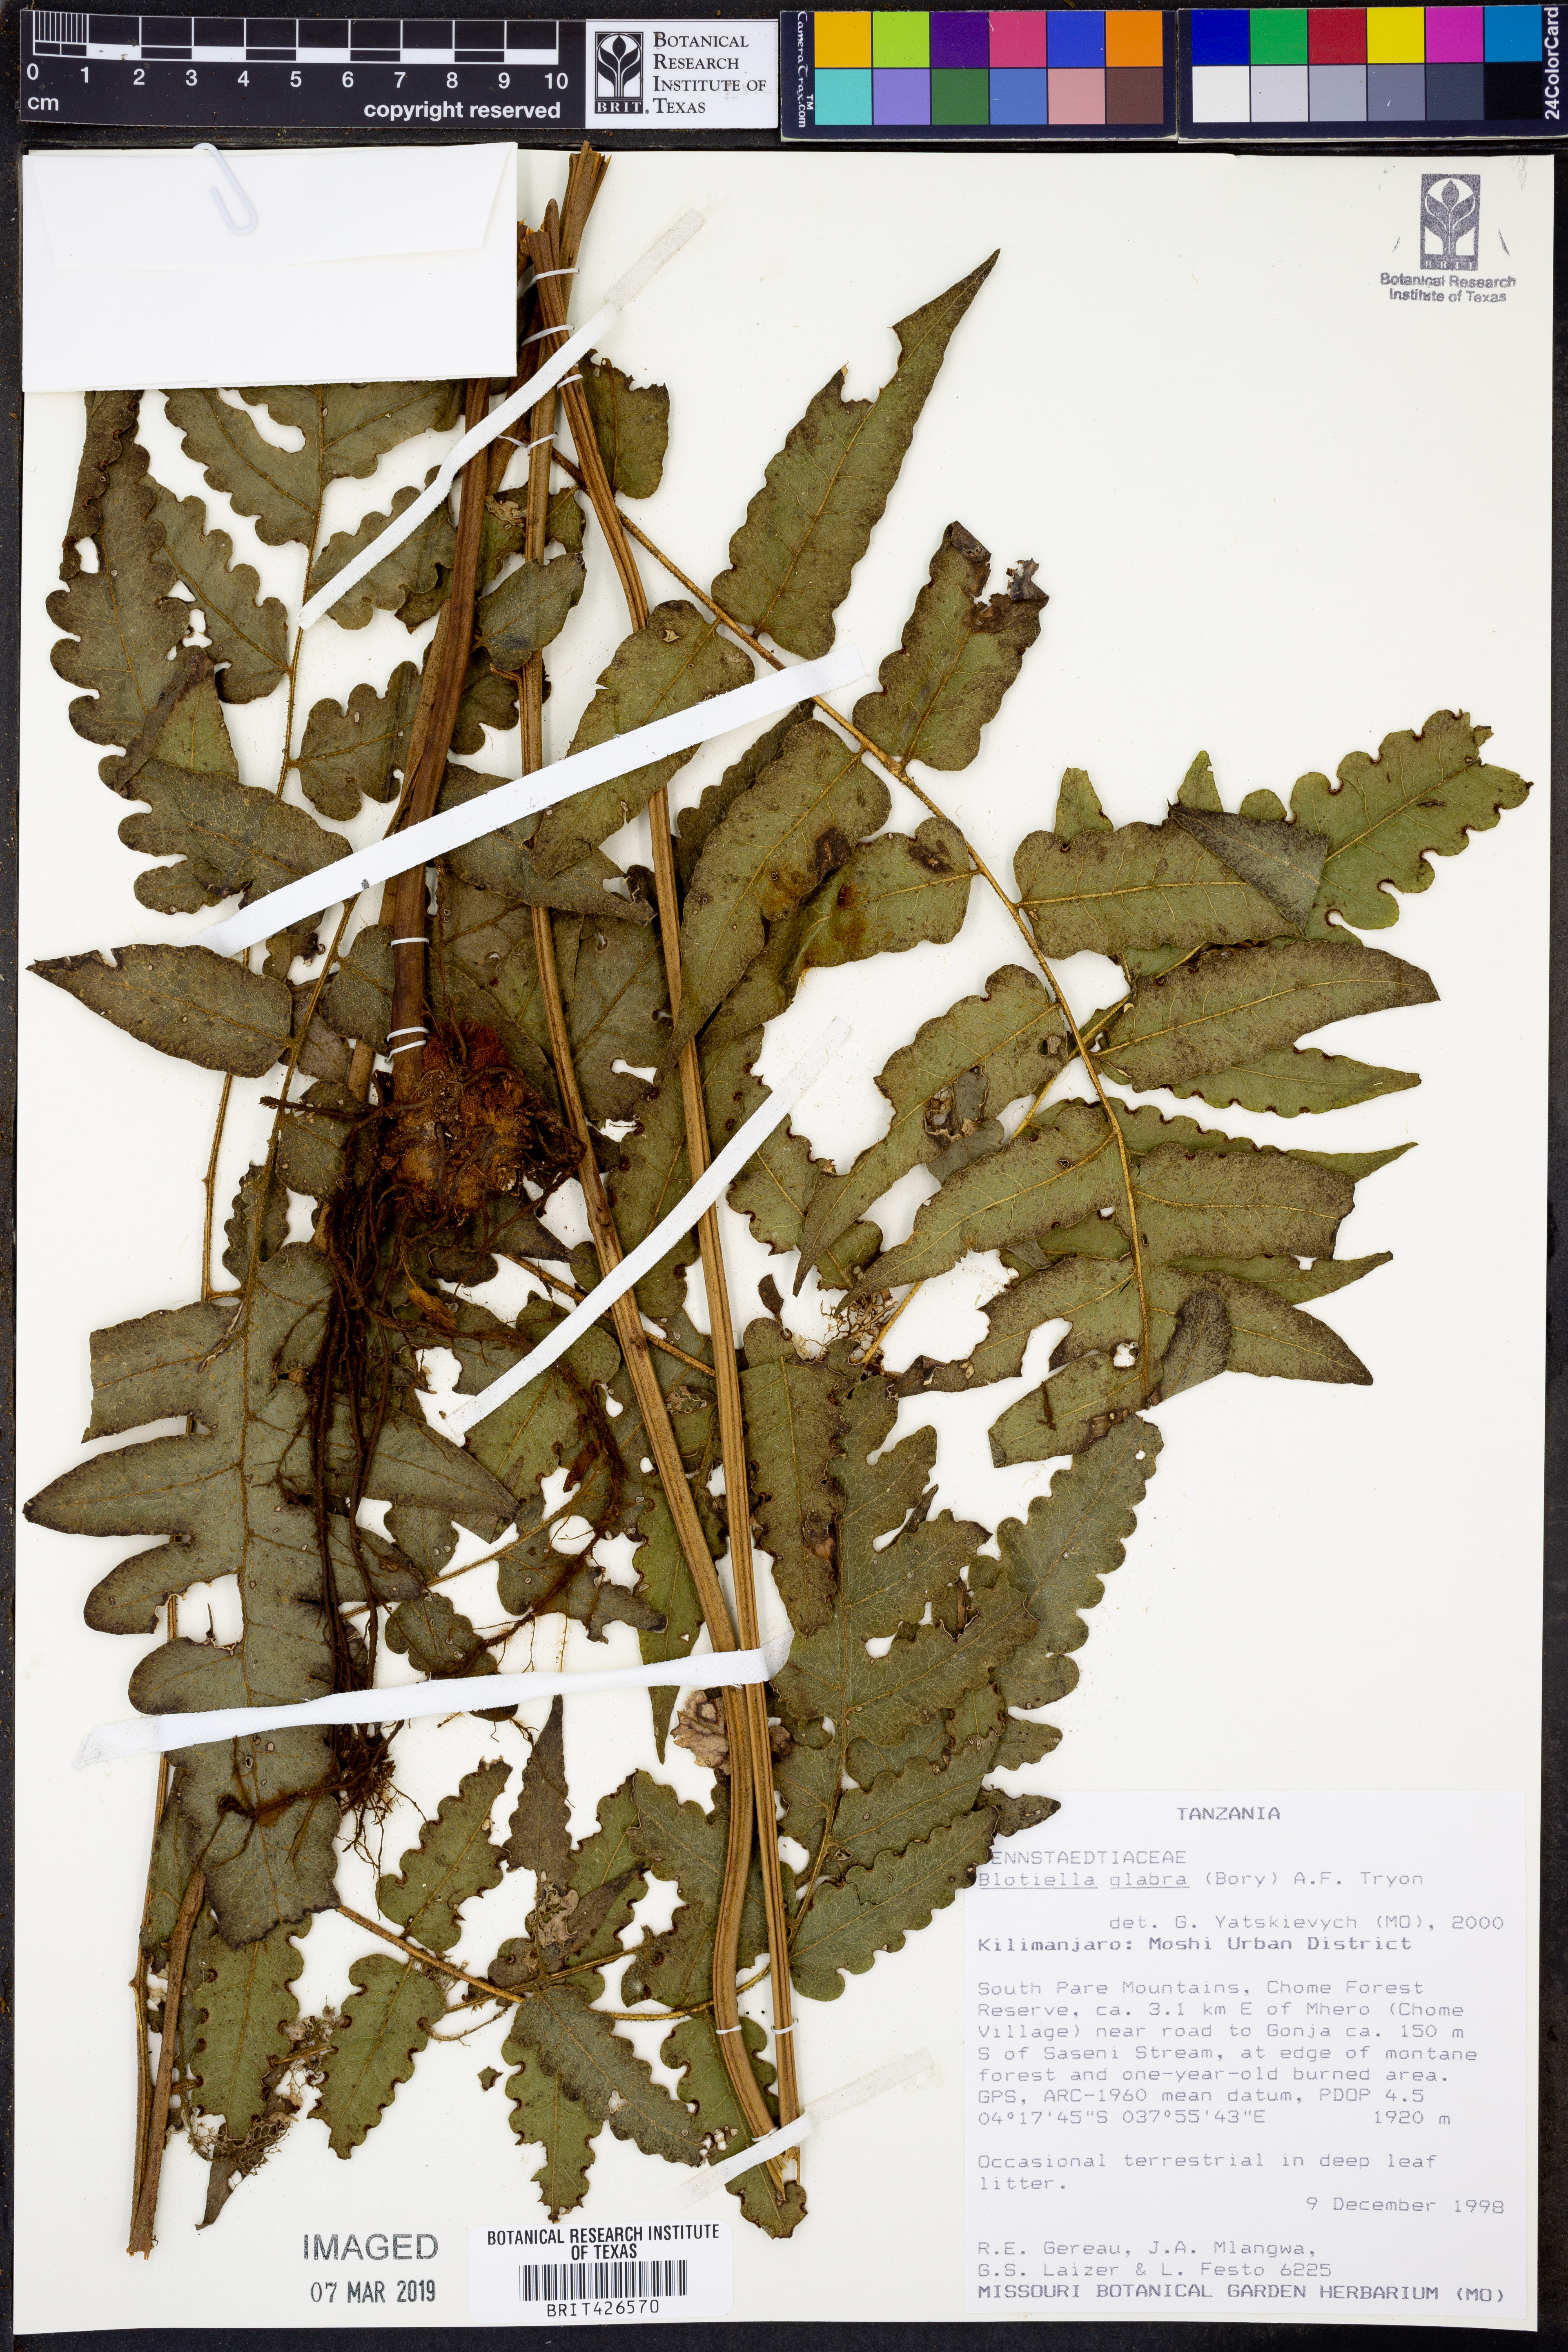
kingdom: Plantae
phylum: Tracheophyta
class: Polypodiopsida
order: Polypodiales
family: Dennstaedtiaceae
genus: Blotiella
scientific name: Blotiella glabra
